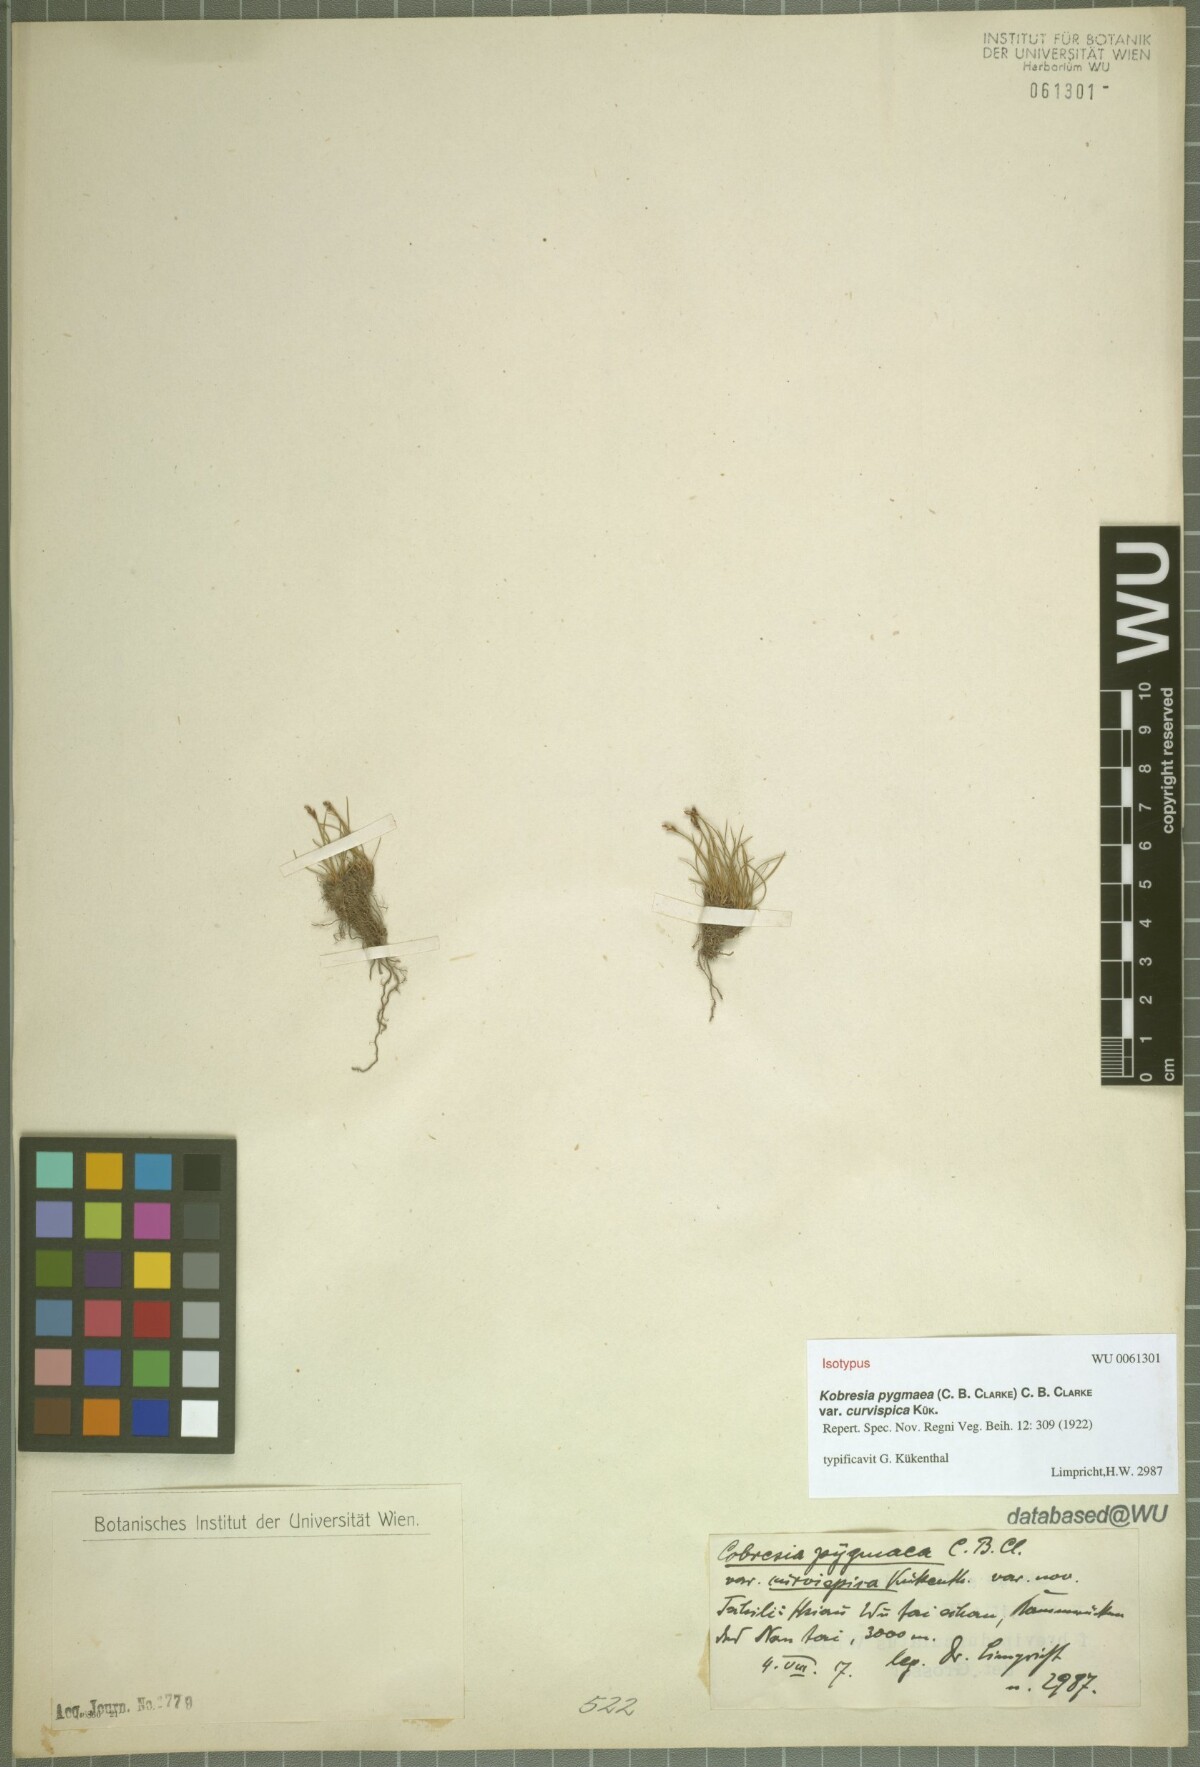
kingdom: Plantae
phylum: Tracheophyta
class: Liliopsida
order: Poales
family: Cyperaceae
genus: Carex
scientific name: Carex parvula
